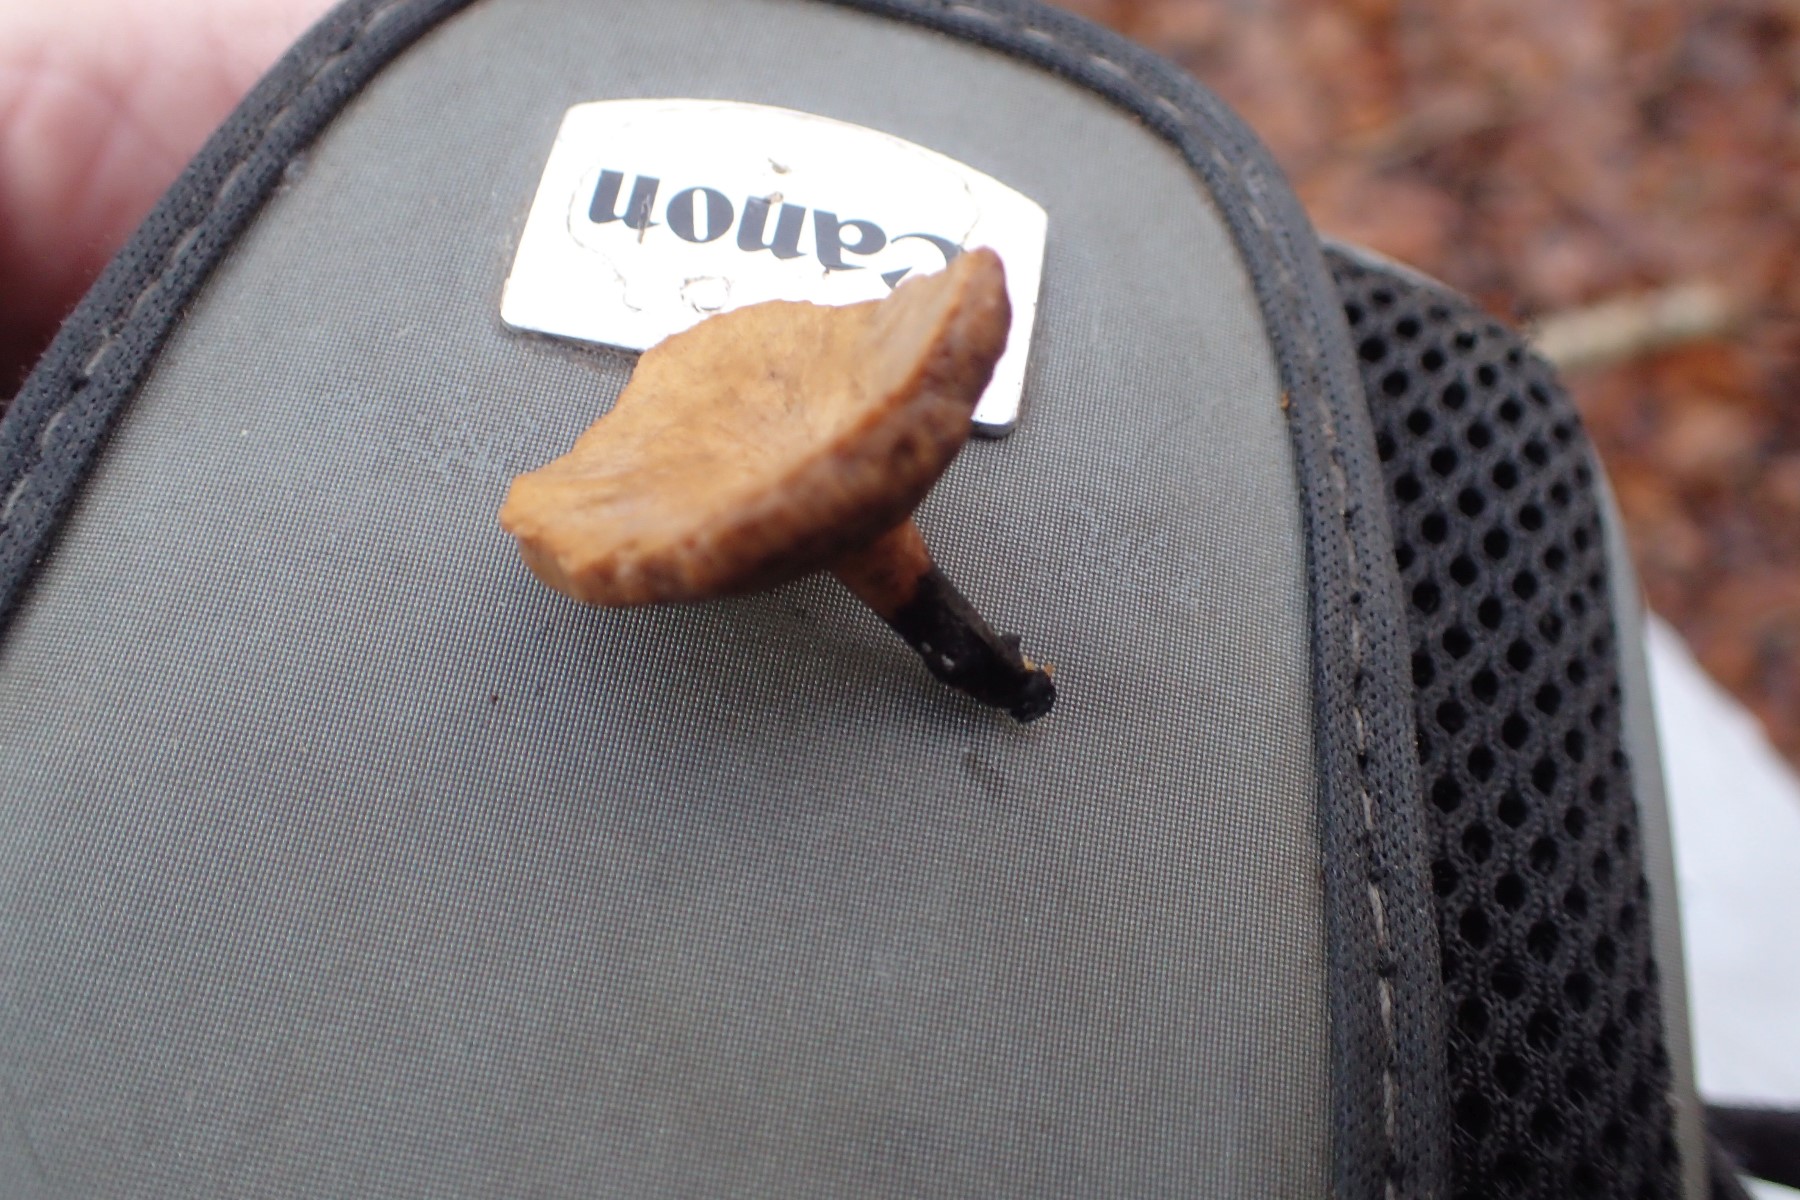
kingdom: Fungi
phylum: Basidiomycota
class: Agaricomycetes
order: Polyporales
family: Polyporaceae
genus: Cerioporus
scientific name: Cerioporus varius
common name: foranderlig stilkporesvamp
